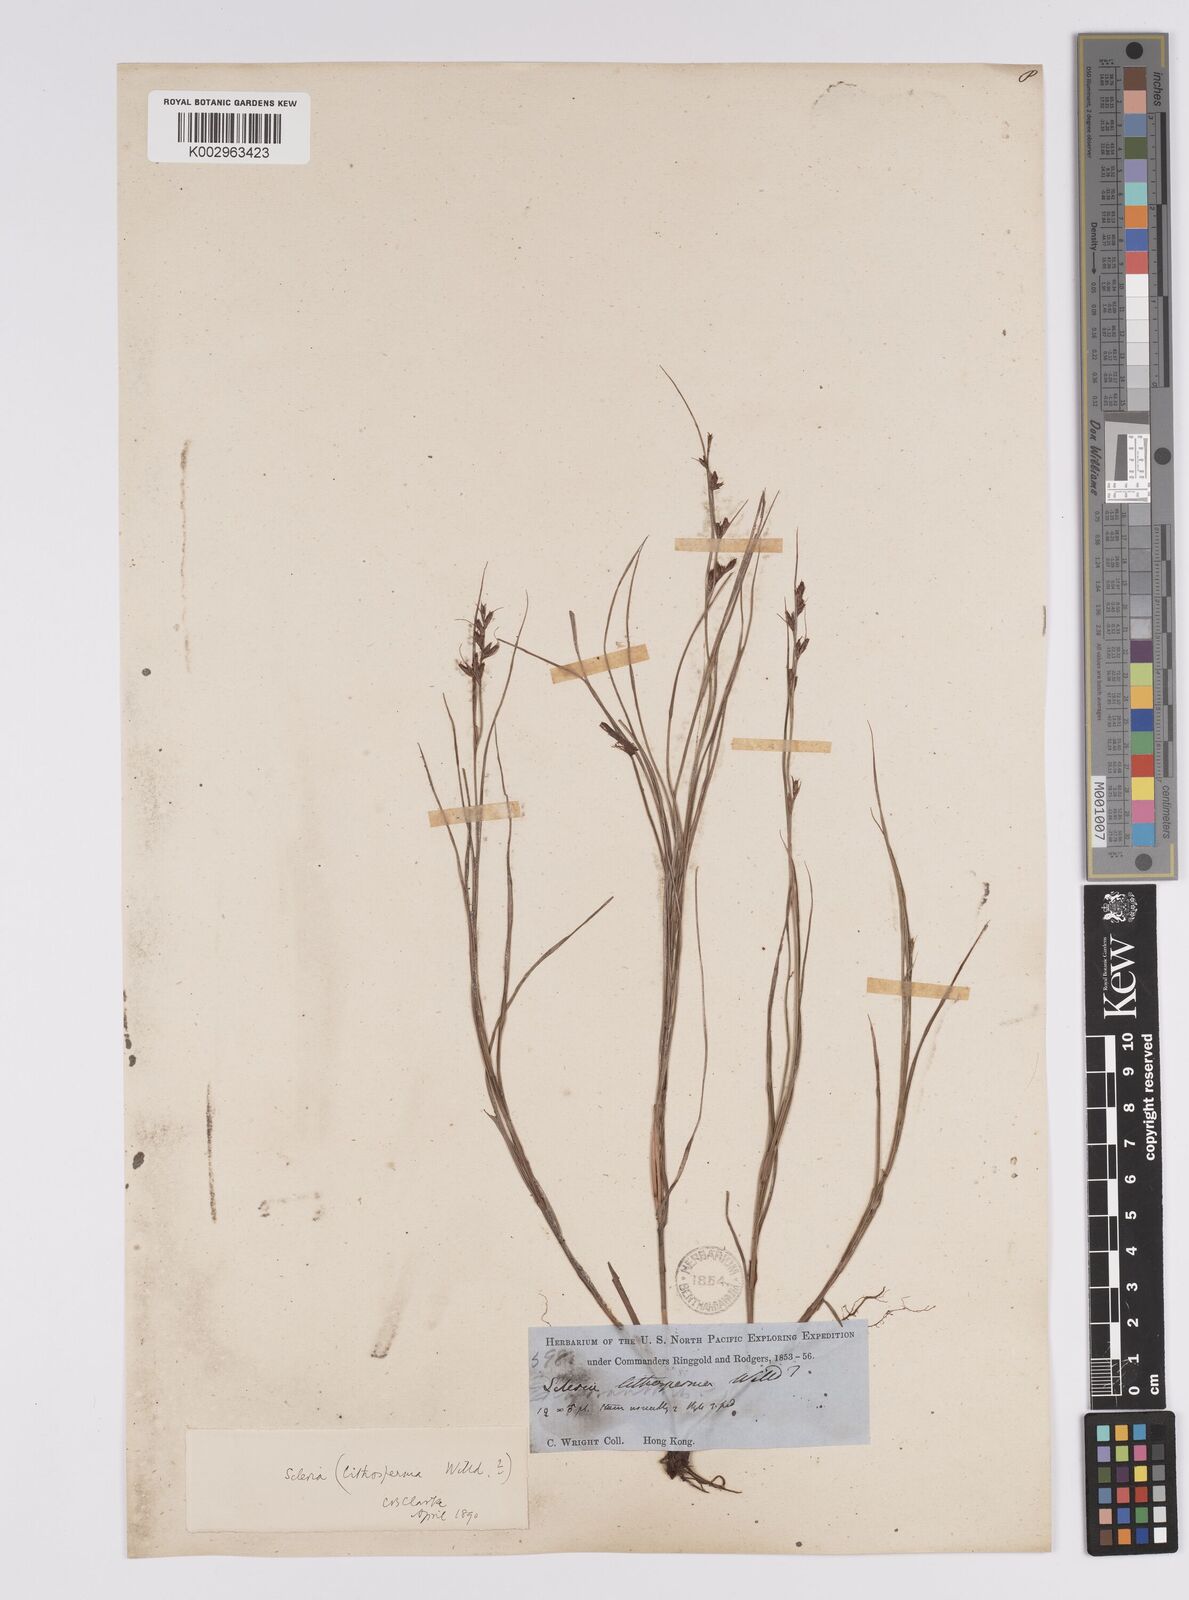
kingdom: Plantae
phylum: Tracheophyta
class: Liliopsida
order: Poales
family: Cyperaceae
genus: Scleria
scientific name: Scleria lithosperma
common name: Florida keys nut-rush
